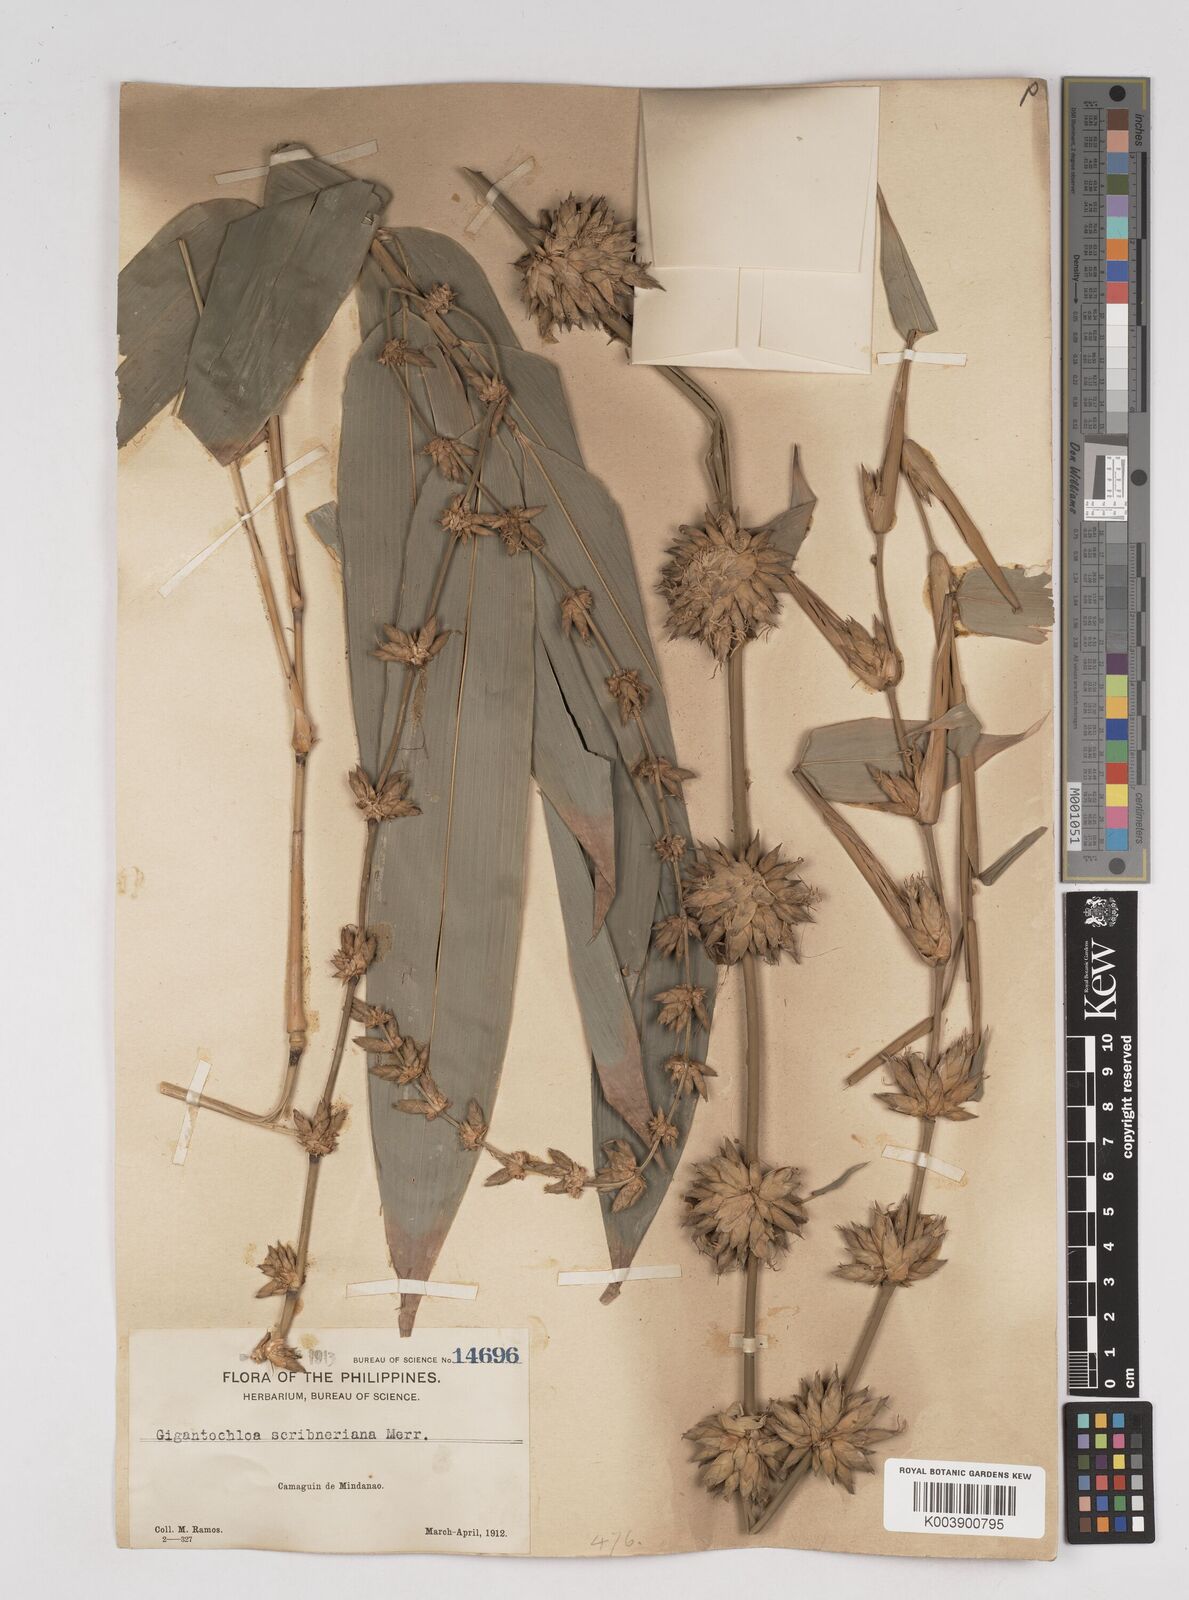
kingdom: Plantae
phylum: Tracheophyta
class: Liliopsida
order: Poales
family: Poaceae
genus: Gigantochloa
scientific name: Gigantochloa levis
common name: Smooth-shoot gigantochloa
